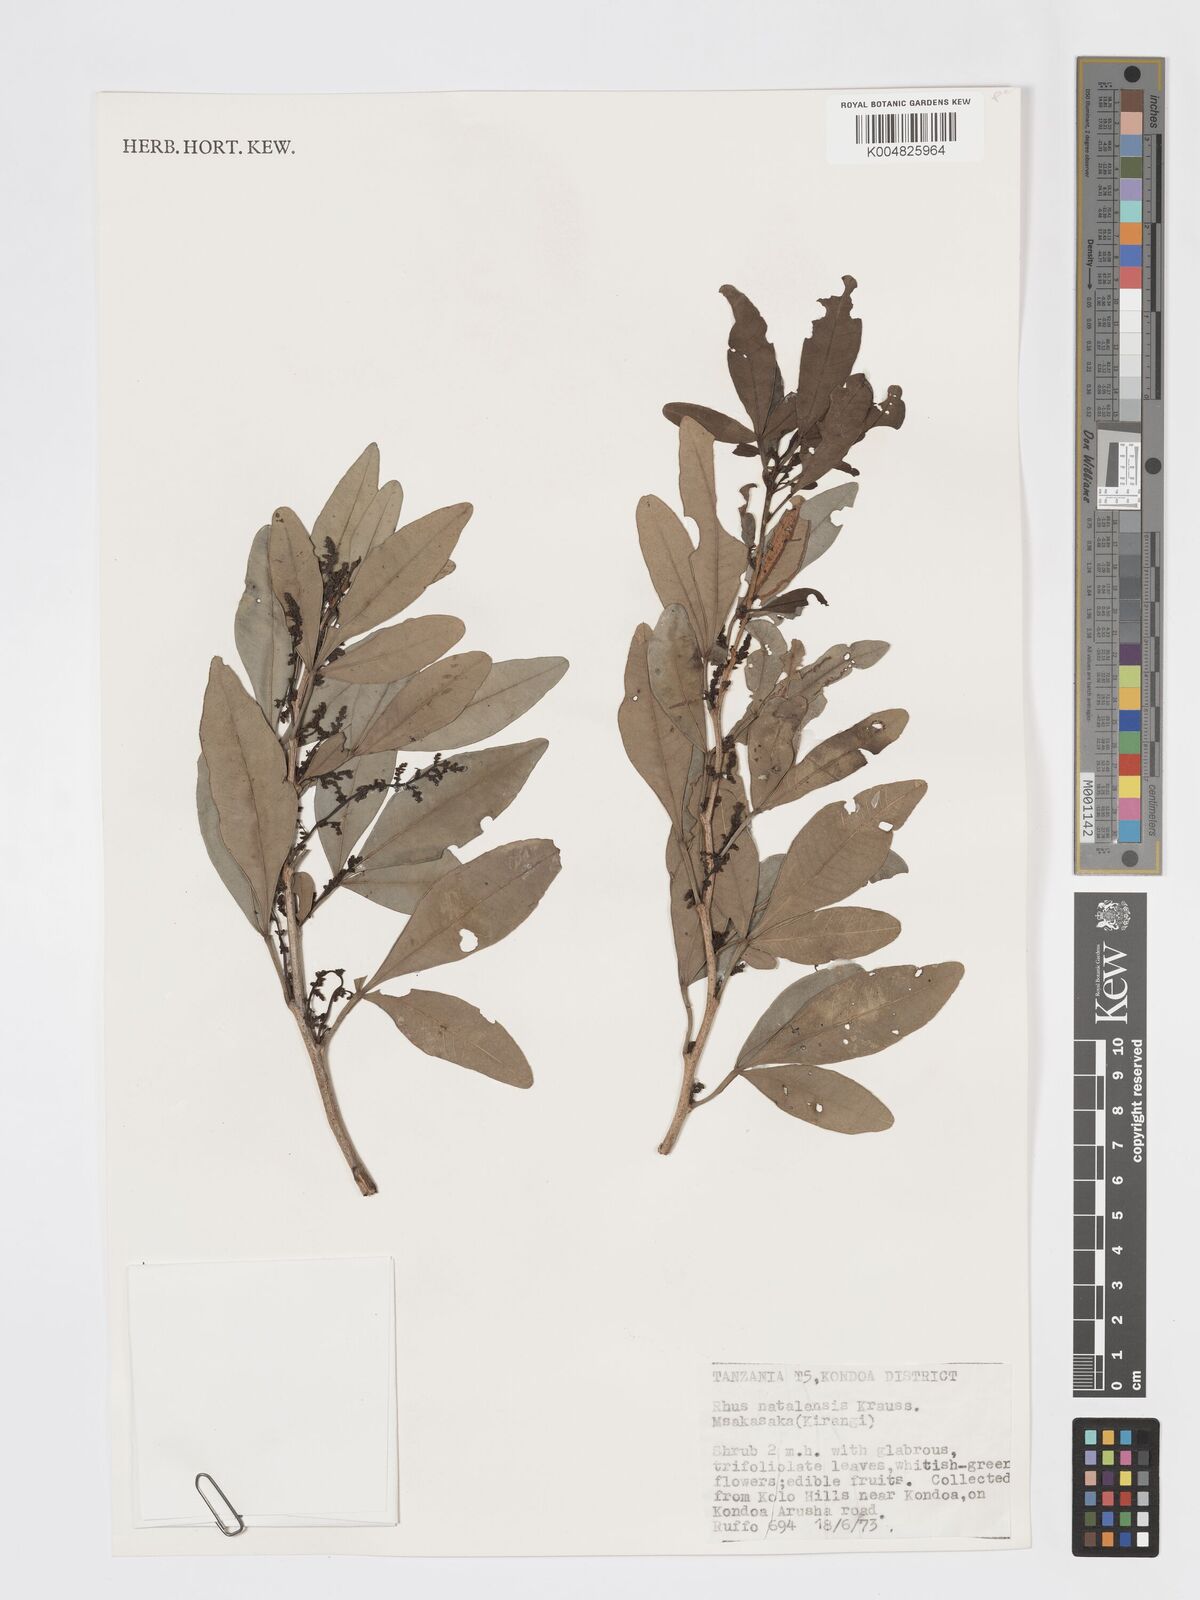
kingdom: Plantae
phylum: Tracheophyta
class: Magnoliopsida
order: Sapindales
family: Anacardiaceae
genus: Searsia
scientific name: Searsia natalensis
